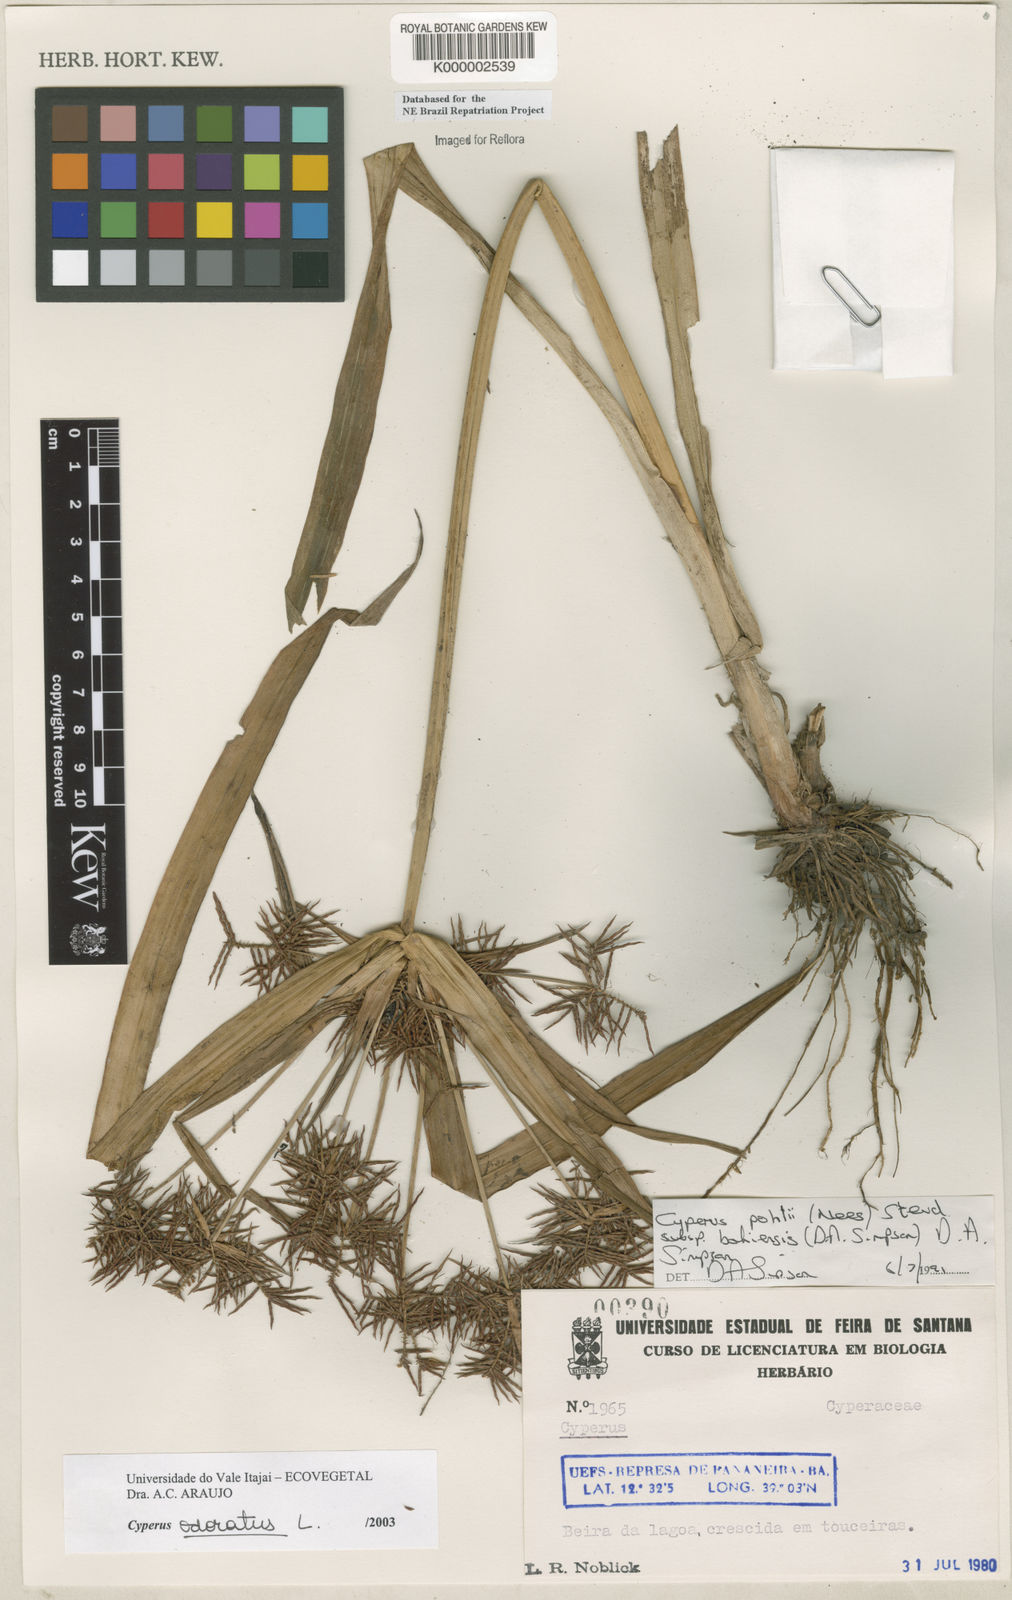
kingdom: Plantae
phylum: Tracheophyta
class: Liliopsida
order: Poales
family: Cyperaceae
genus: Cyperus
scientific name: Cyperus odoratus
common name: Fragrant flatsedge
